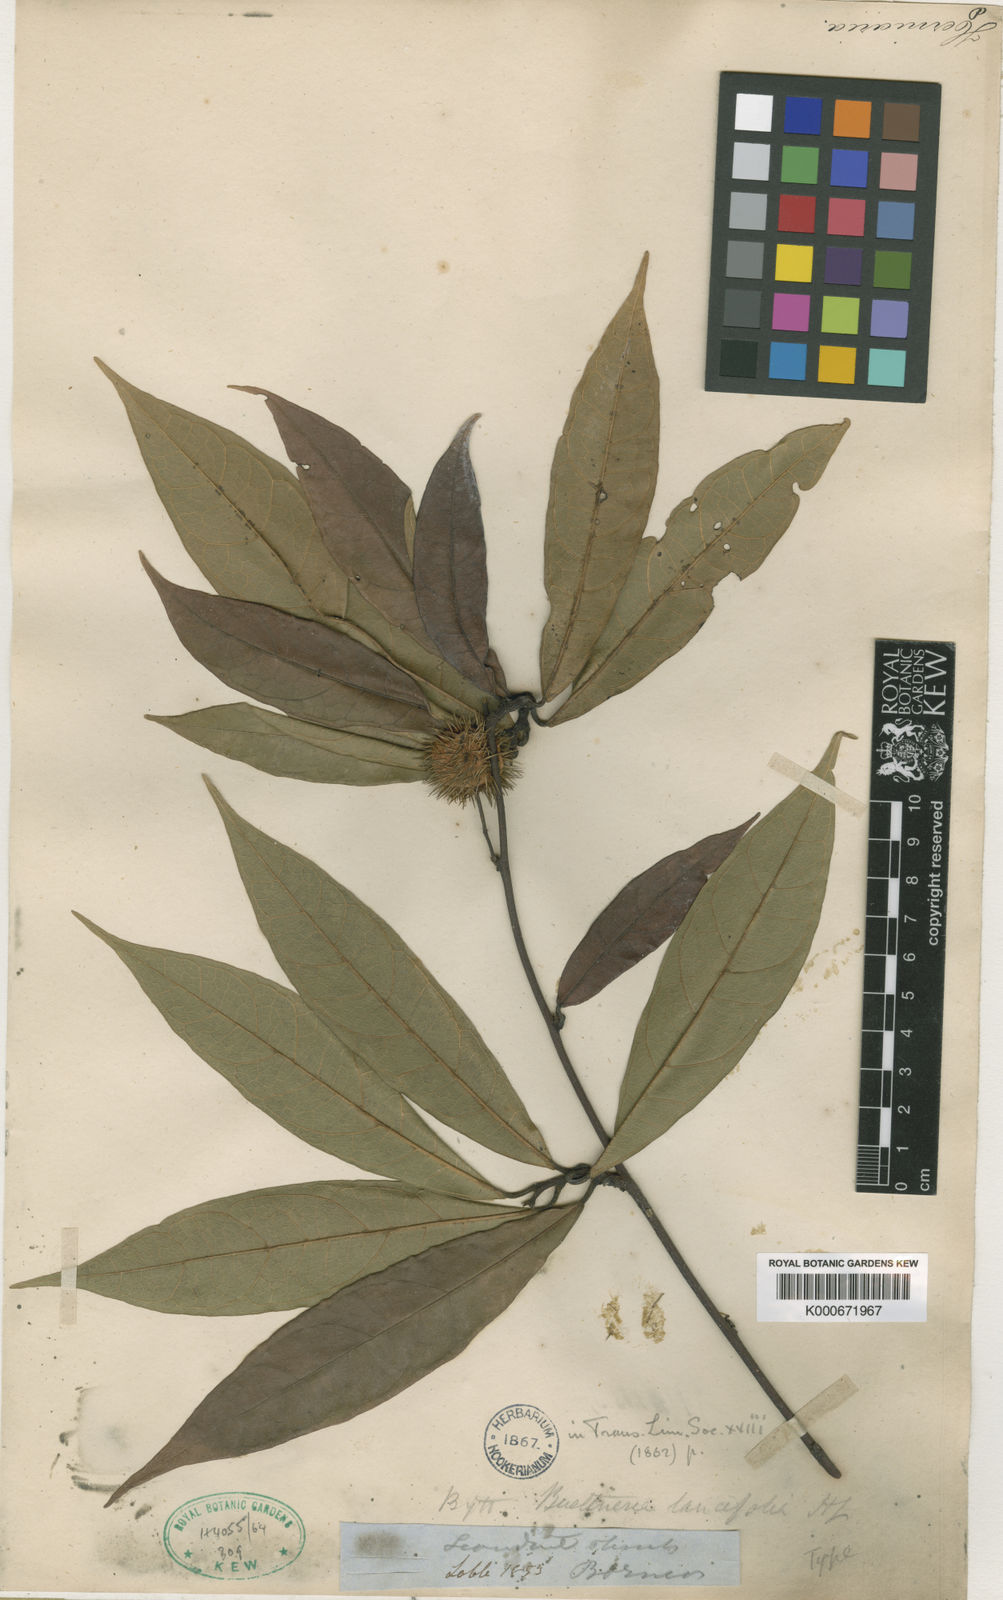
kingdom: Plantae
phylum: Tracheophyta
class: Magnoliopsida
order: Malvales
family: Malvaceae
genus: Byttneria
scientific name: Byttneria beccarii
